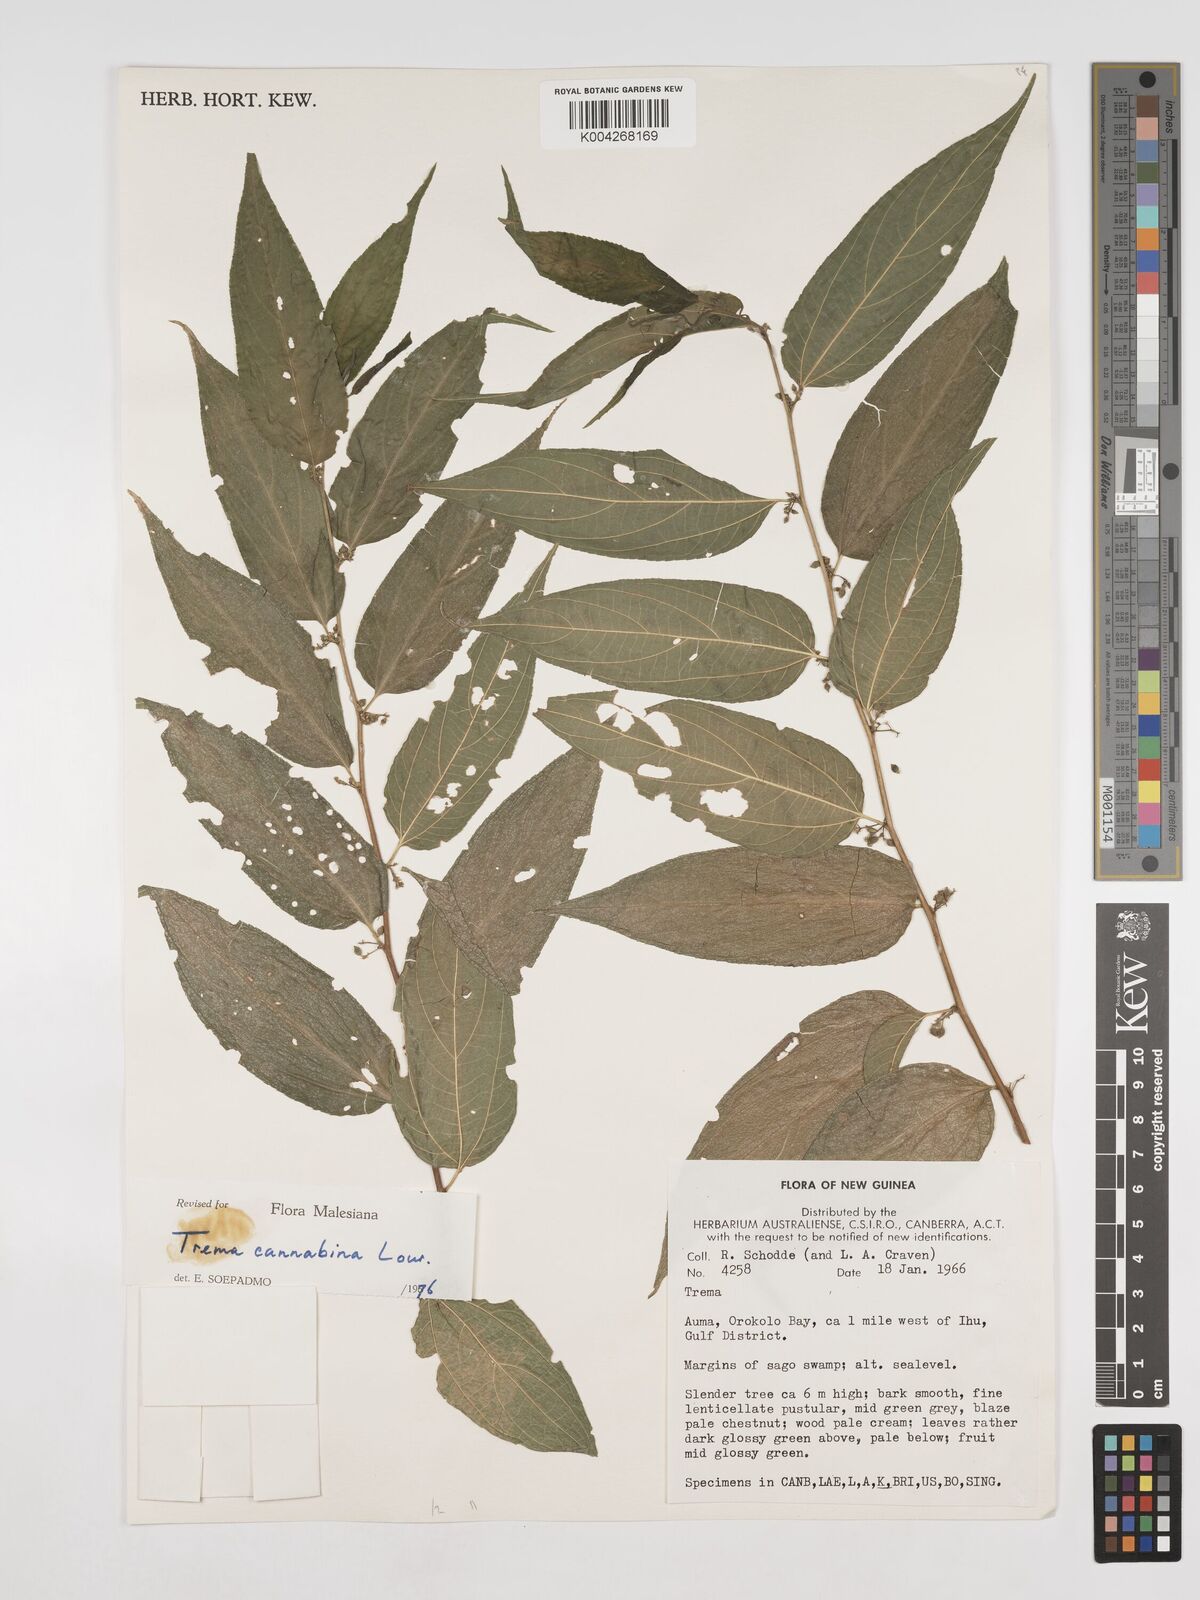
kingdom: Plantae
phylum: Tracheophyta
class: Magnoliopsida
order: Rosales
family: Cannabaceae
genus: Trema
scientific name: Trema
